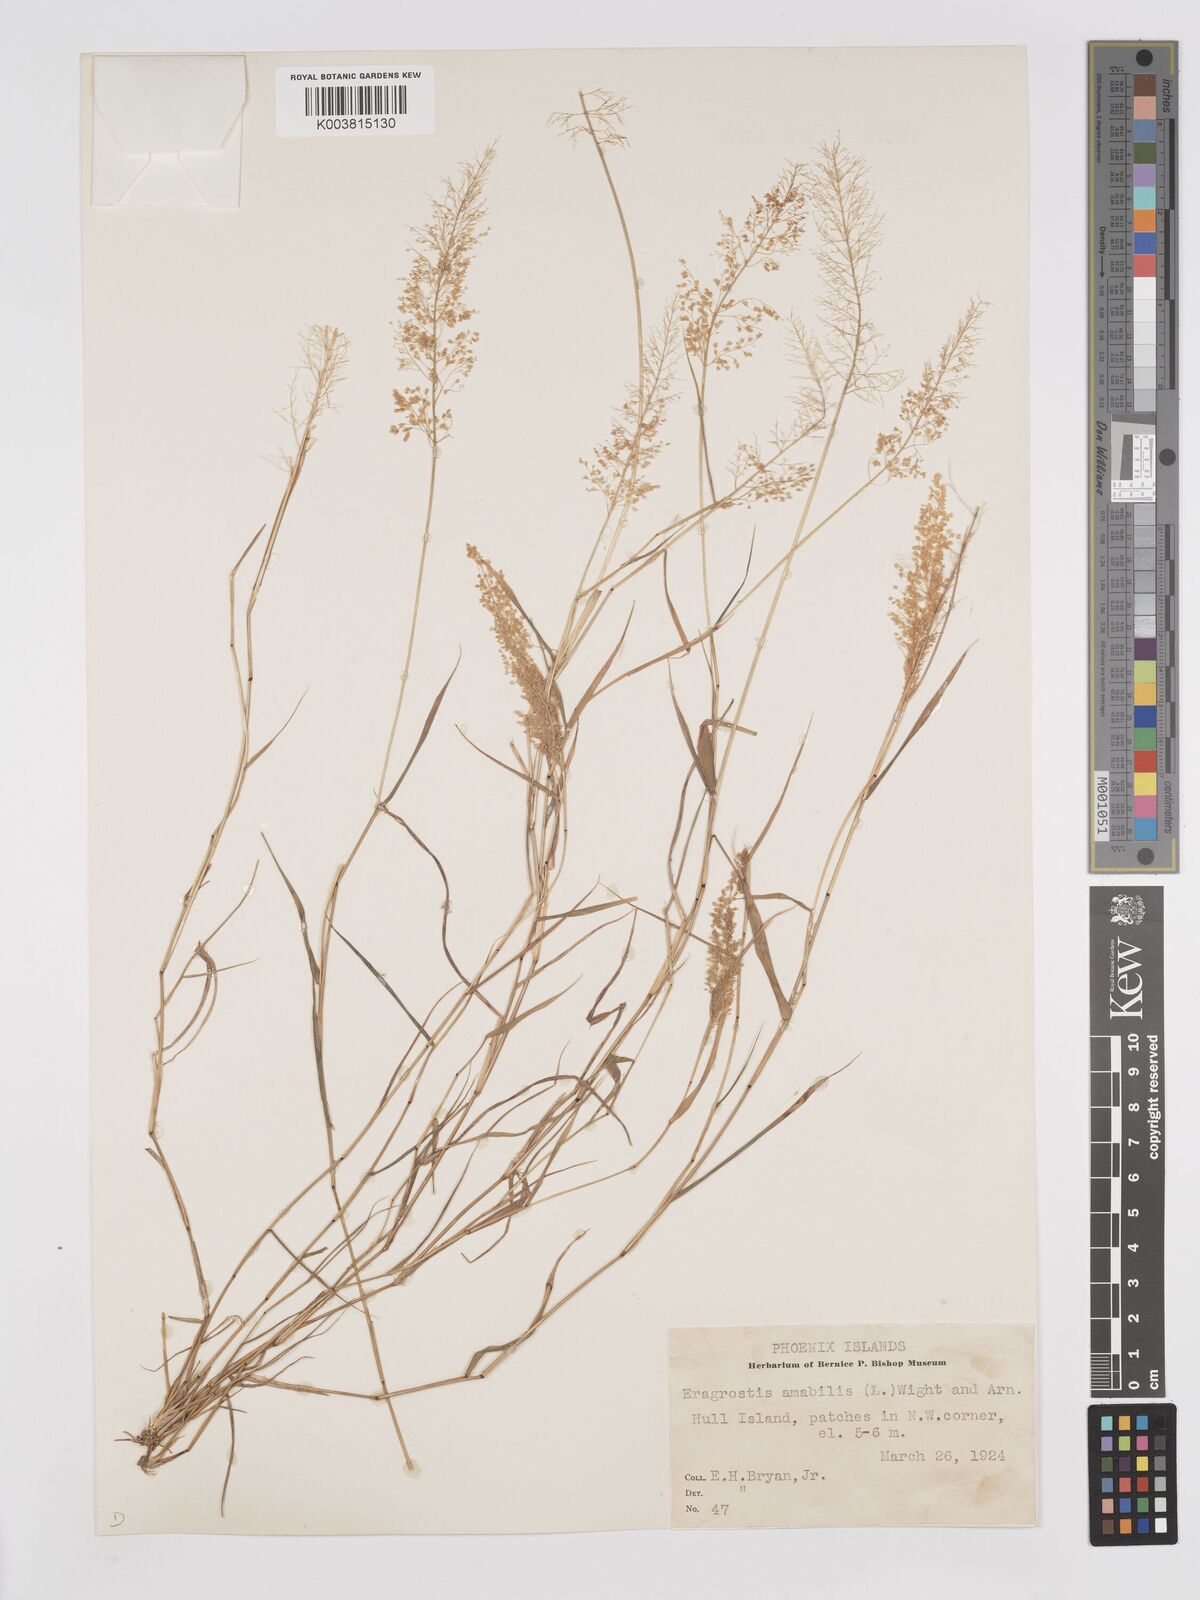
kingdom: Plantae
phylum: Tracheophyta
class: Liliopsida
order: Poales
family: Poaceae
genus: Eragrostis
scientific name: Eragrostis tenella
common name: Japanese lovegrass
